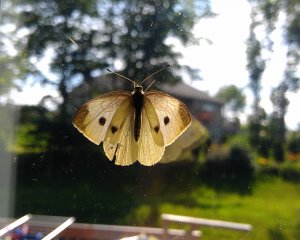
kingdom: Animalia
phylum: Arthropoda
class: Insecta
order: Lepidoptera
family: Pieridae
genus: Pieris
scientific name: Pieris rapae
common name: Cabbage White
